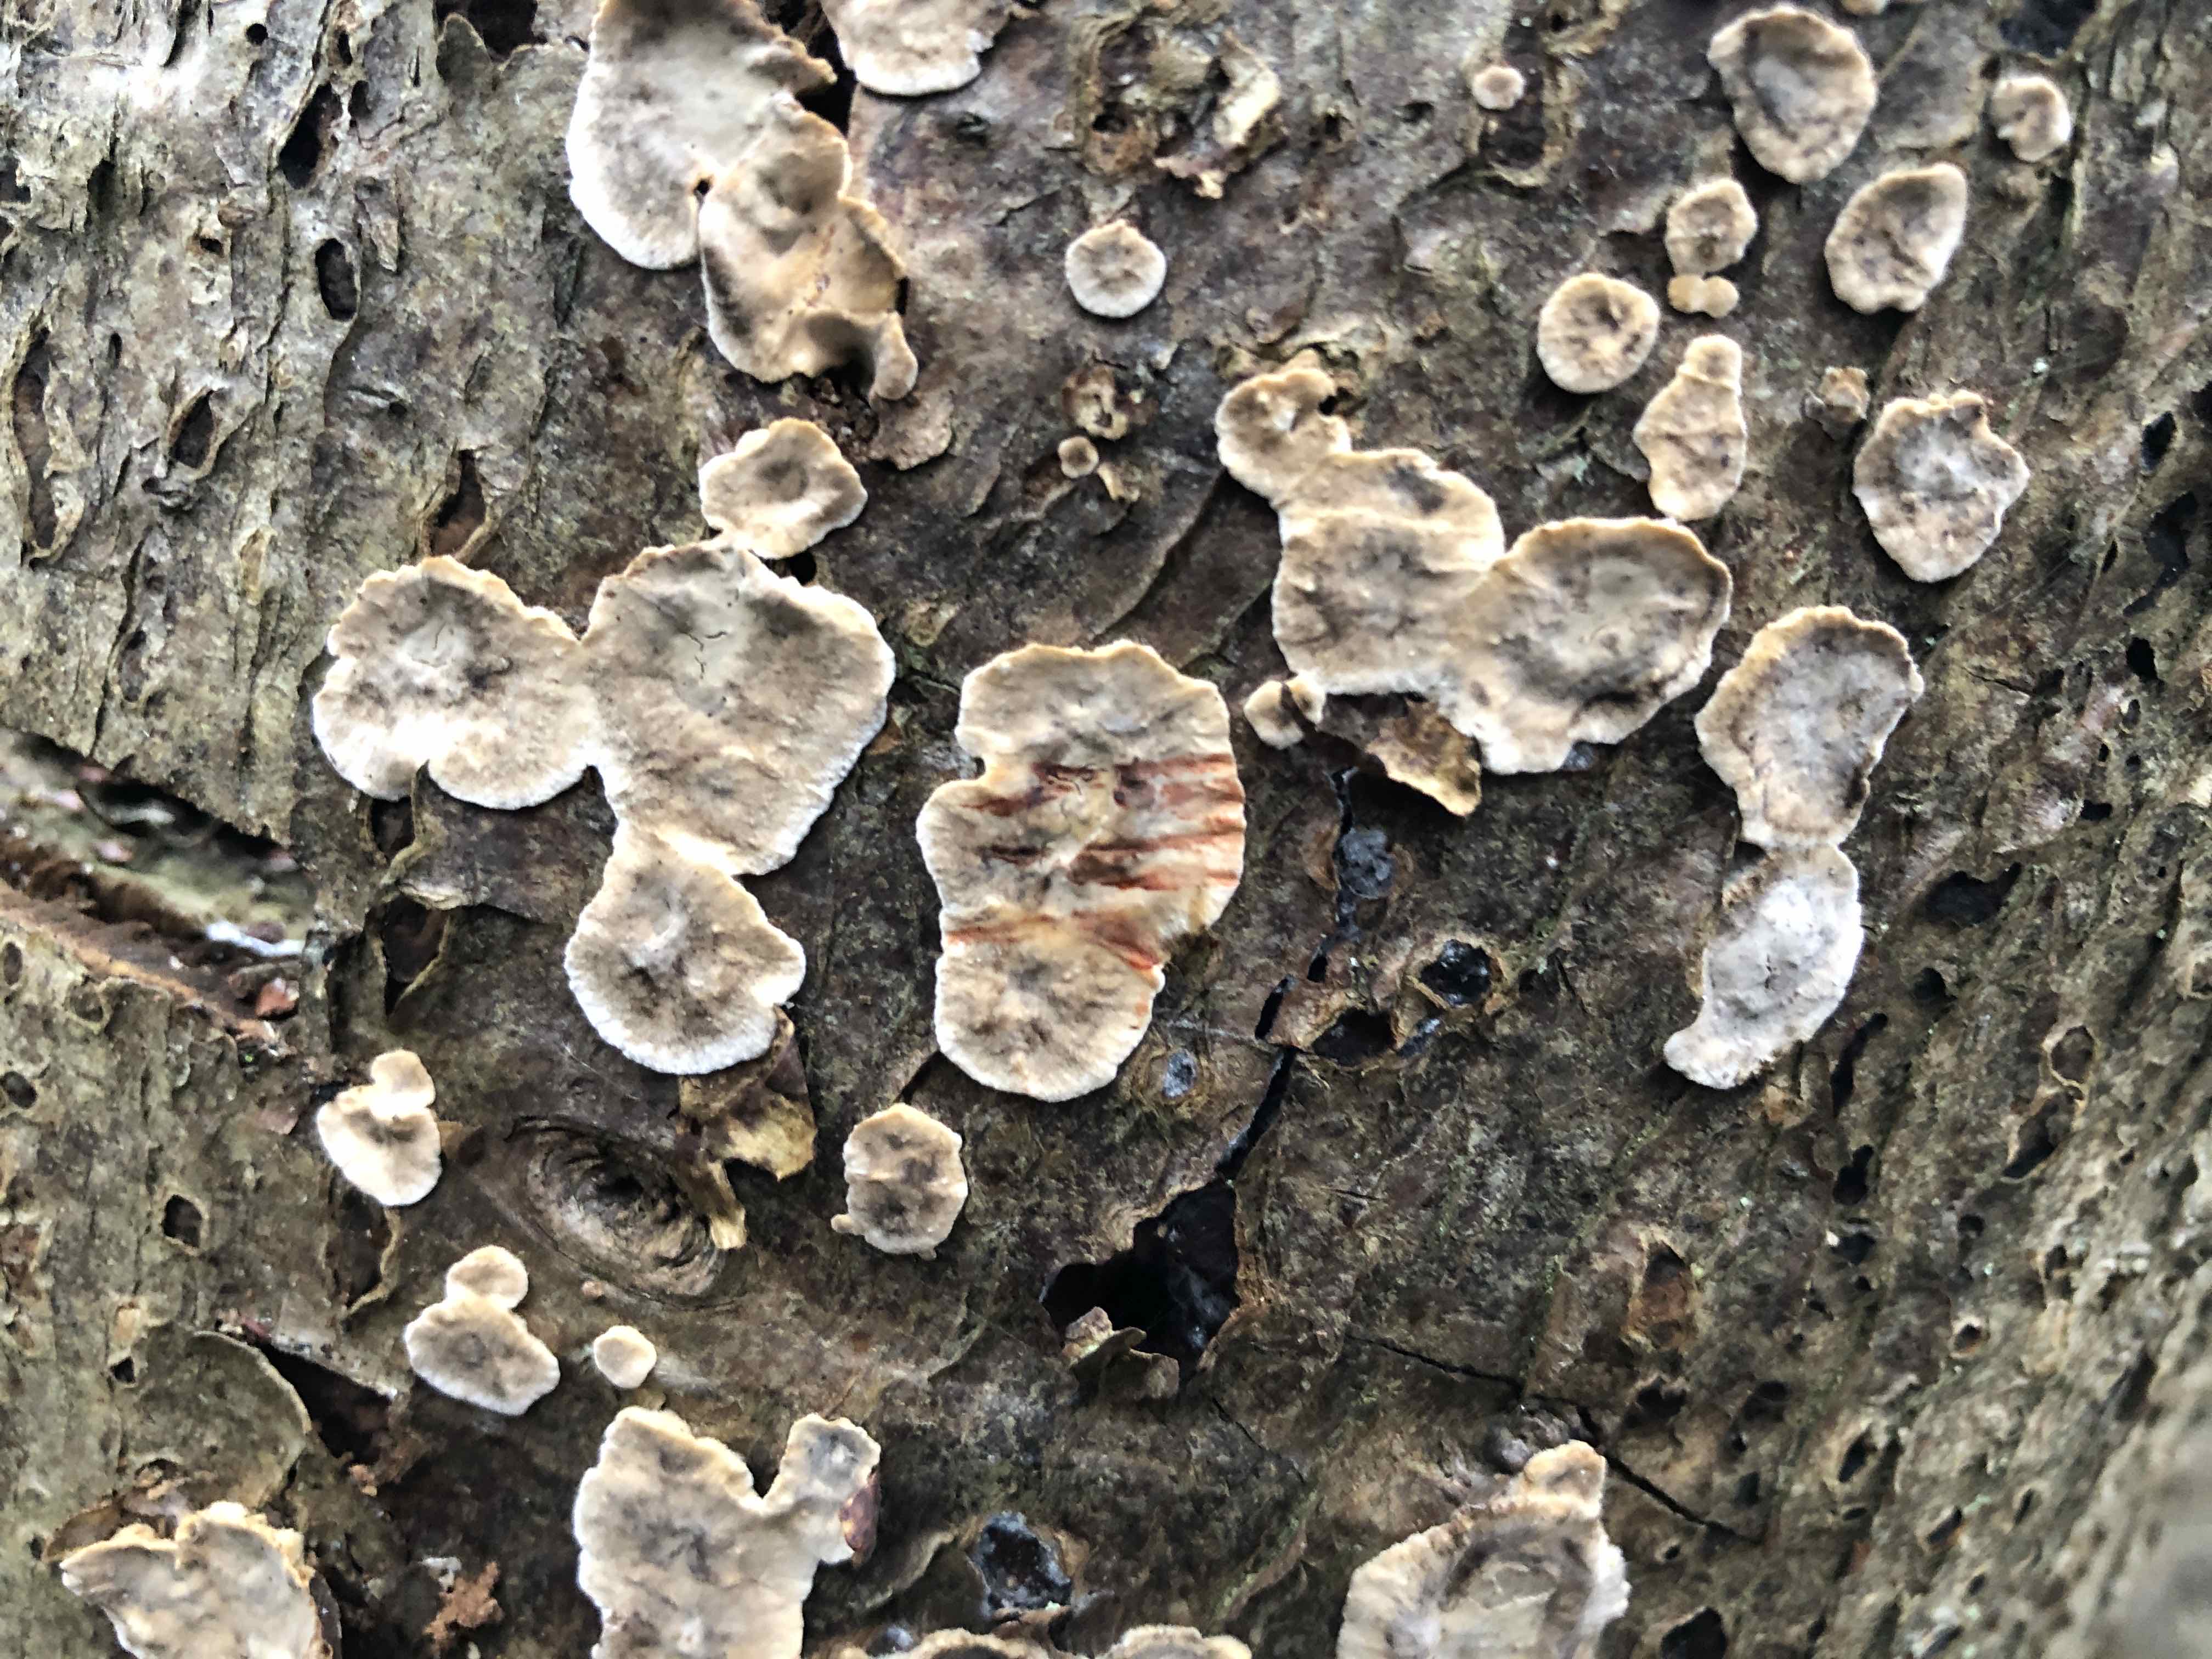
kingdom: Fungi
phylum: Basidiomycota
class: Agaricomycetes
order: Russulales
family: Stereaceae
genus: Stereum
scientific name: Stereum rugosum
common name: rynket lædersvamp
